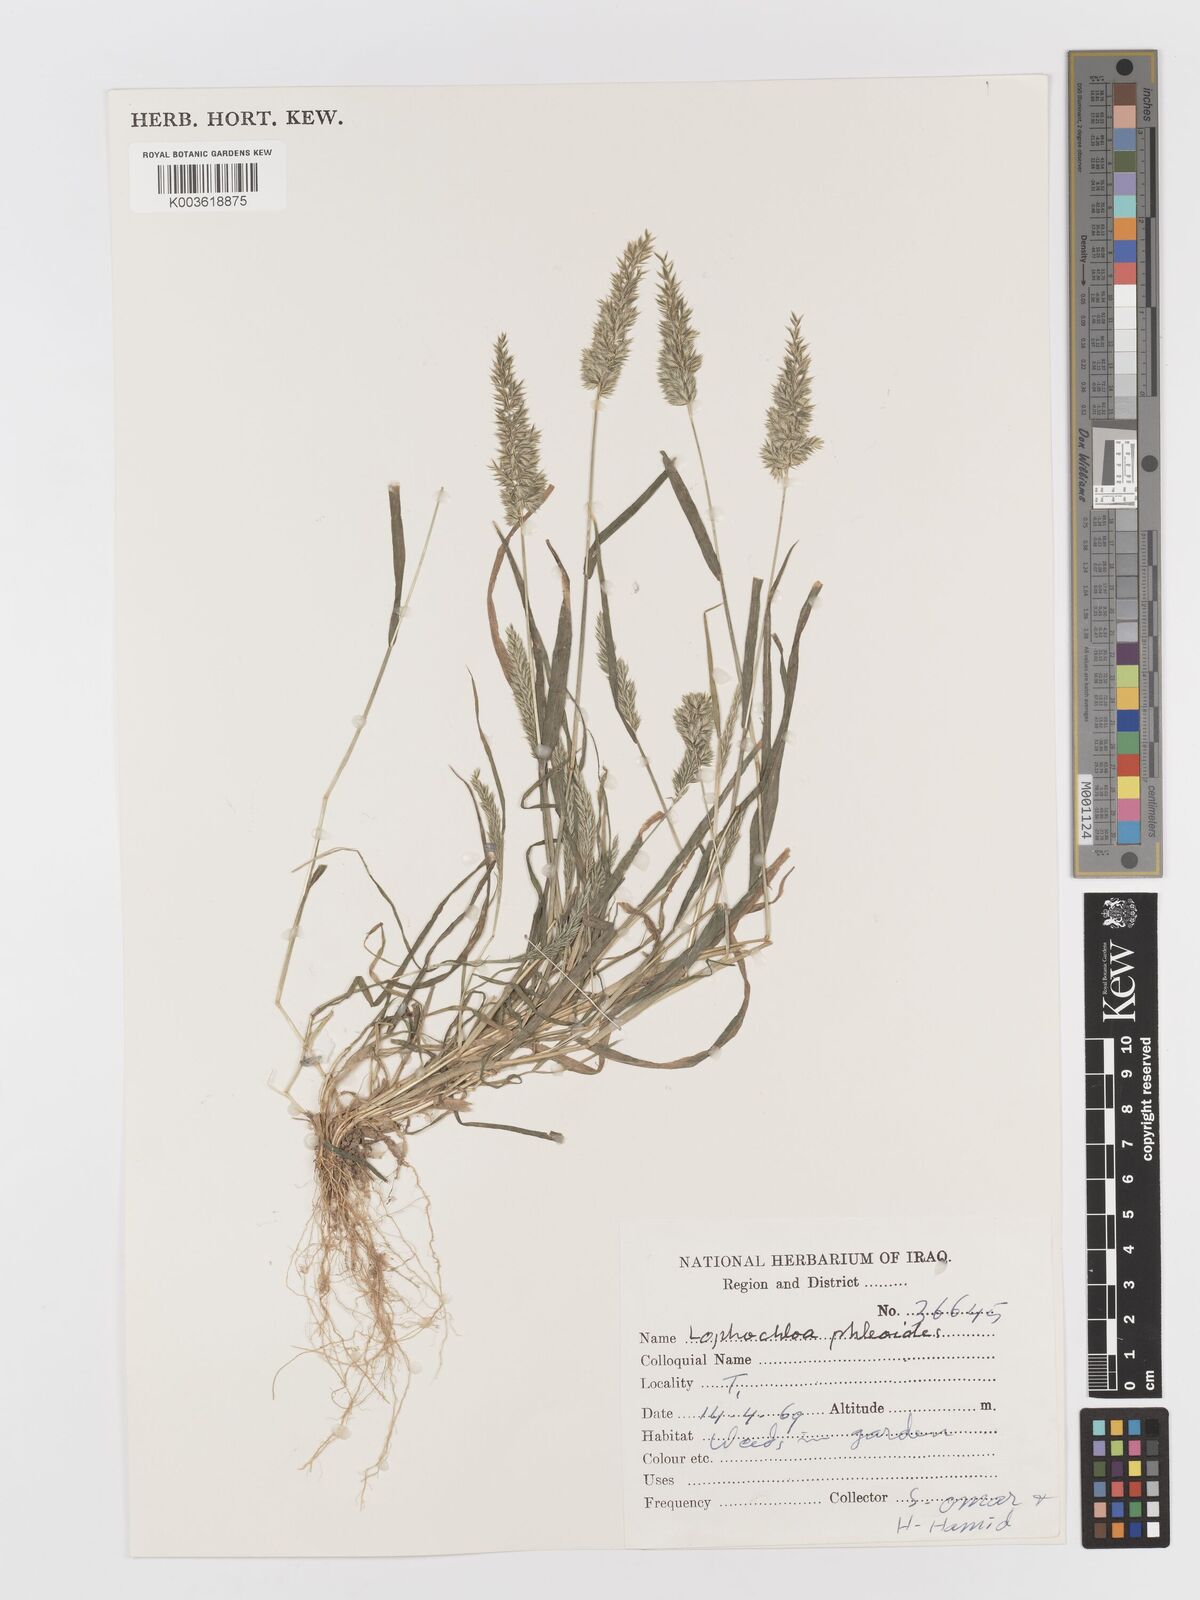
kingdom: Plantae
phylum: Tracheophyta
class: Liliopsida
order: Poales
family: Poaceae
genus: Rostraria
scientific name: Rostraria cristata
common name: Mediterranean hair-grass
